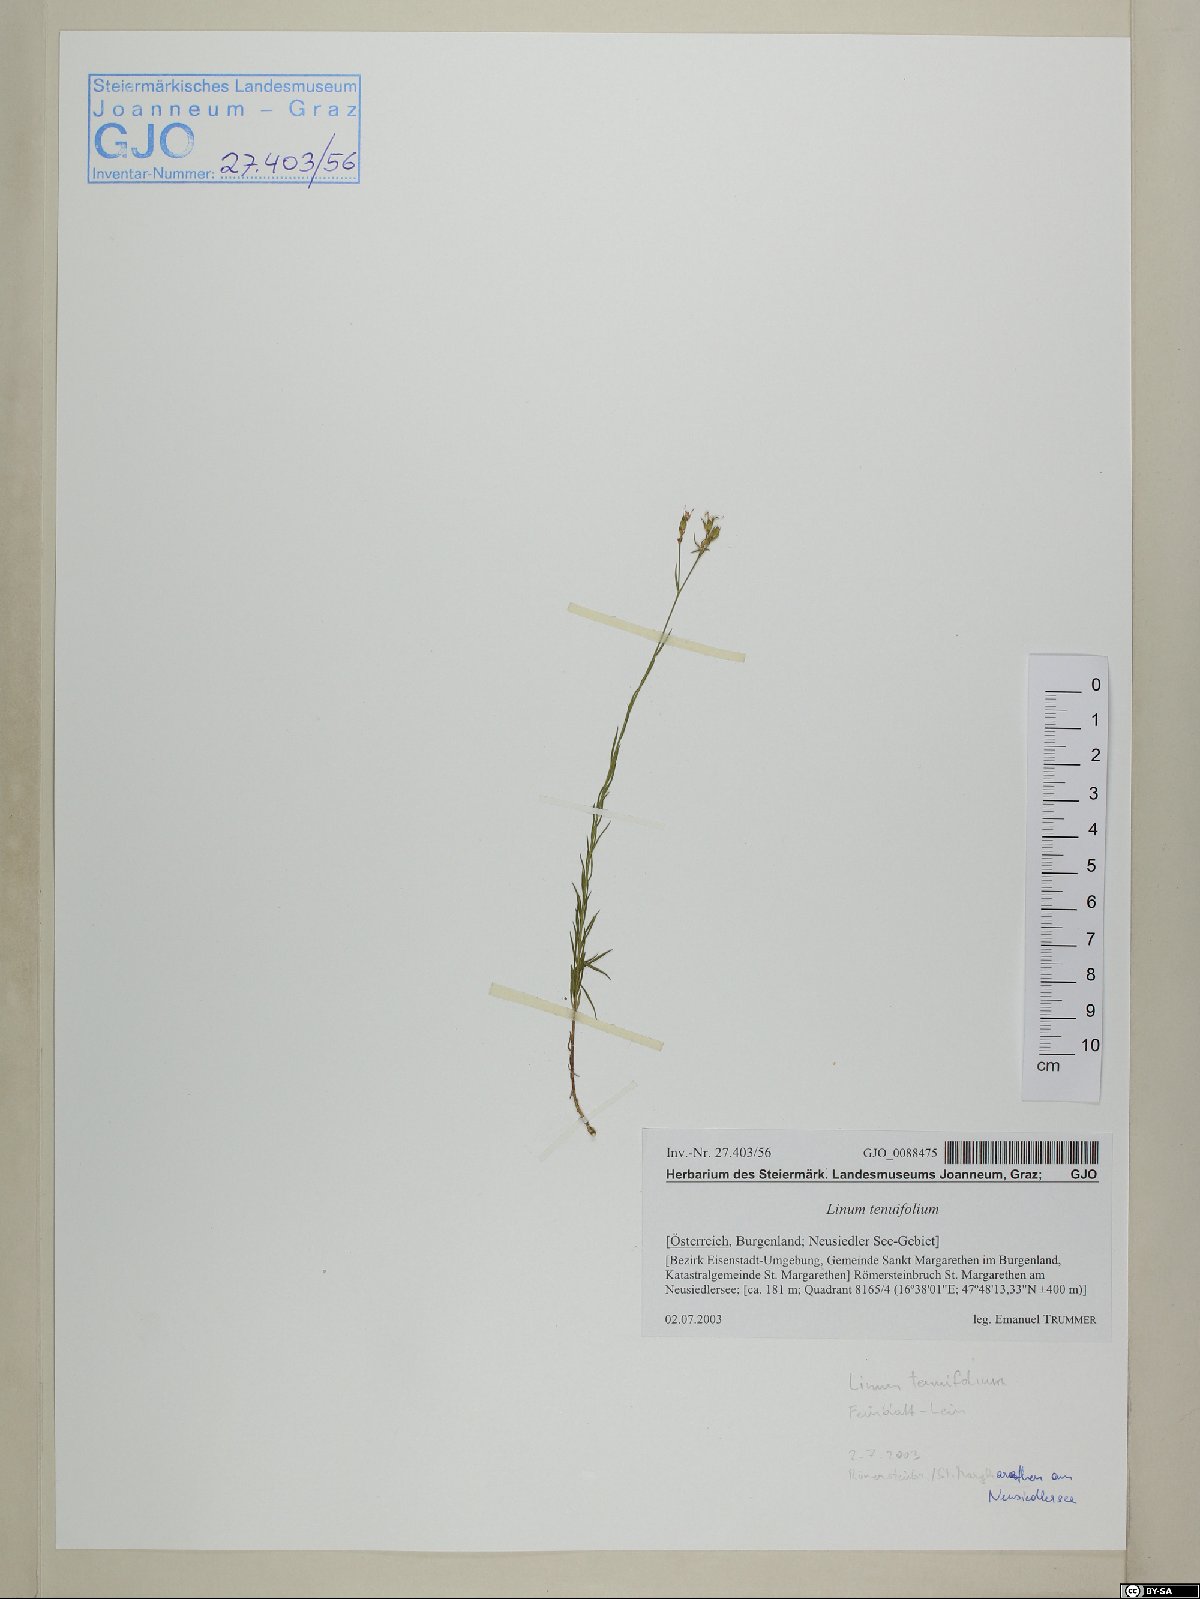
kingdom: Plantae
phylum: Tracheophyta
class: Magnoliopsida
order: Malpighiales
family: Linaceae
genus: Linum
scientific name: Linum tenuifolium
